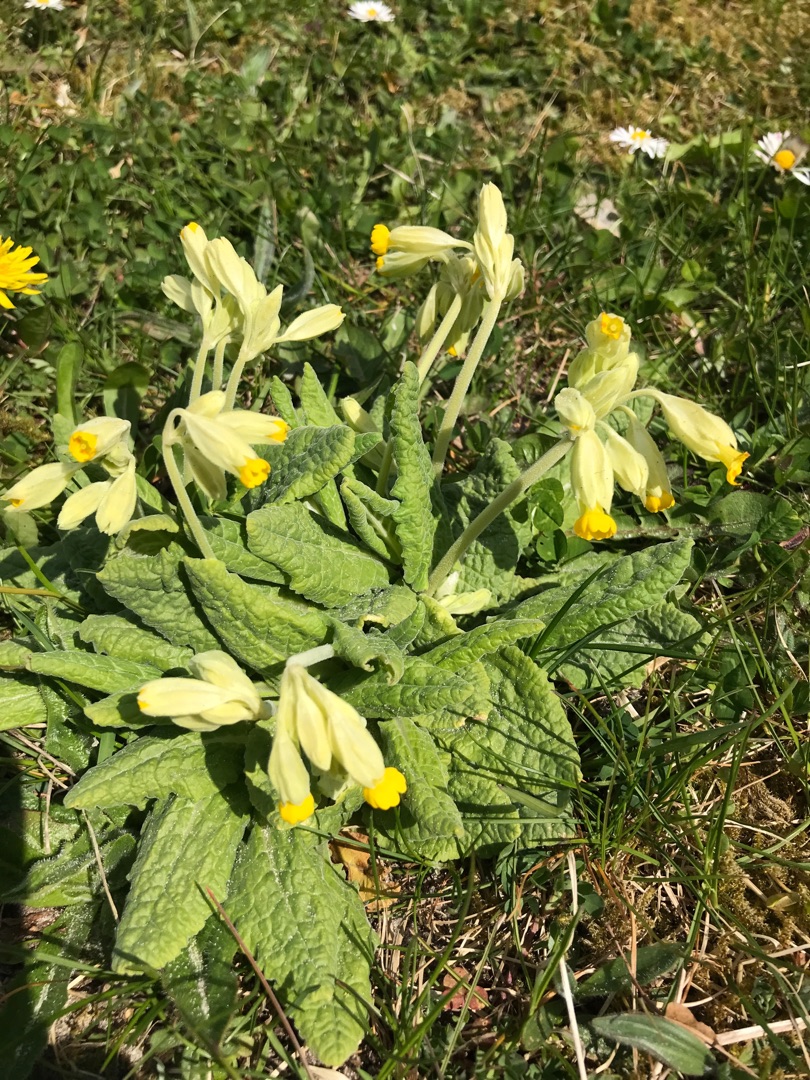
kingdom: Plantae
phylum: Tracheophyta
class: Magnoliopsida
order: Ericales
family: Primulaceae
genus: Primula
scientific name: Primula veris
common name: Hulkravet kodriver
